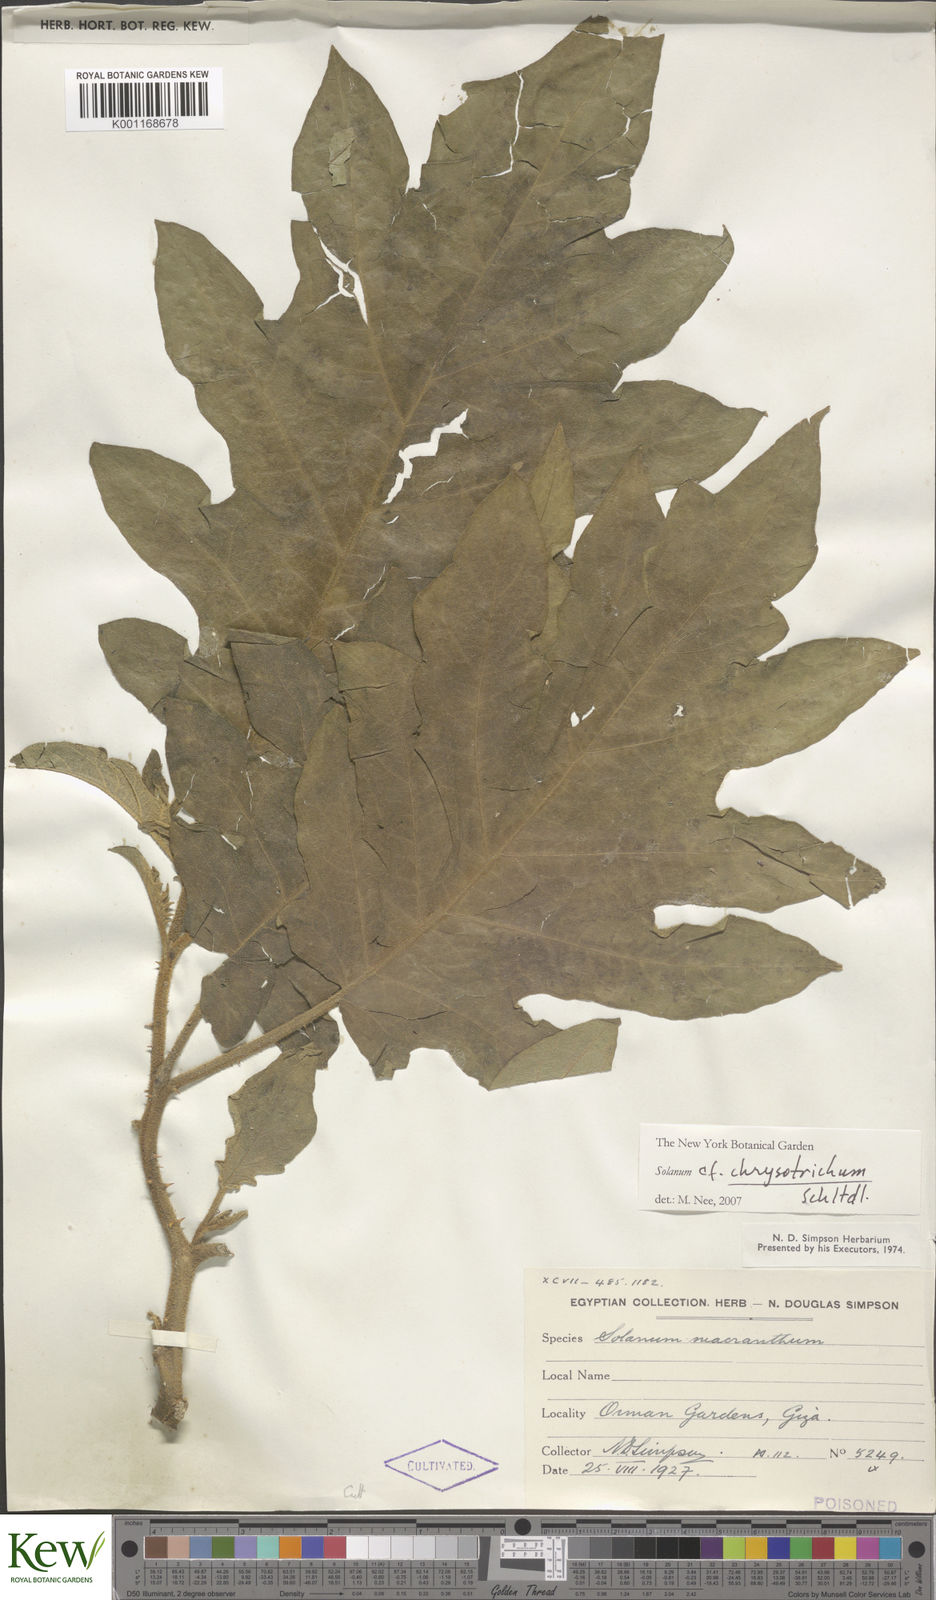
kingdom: Plantae
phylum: Tracheophyta
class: Magnoliopsida
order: Solanales
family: Solanaceae
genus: Solanum
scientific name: Solanum chrysotrichum
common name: Nightshade
